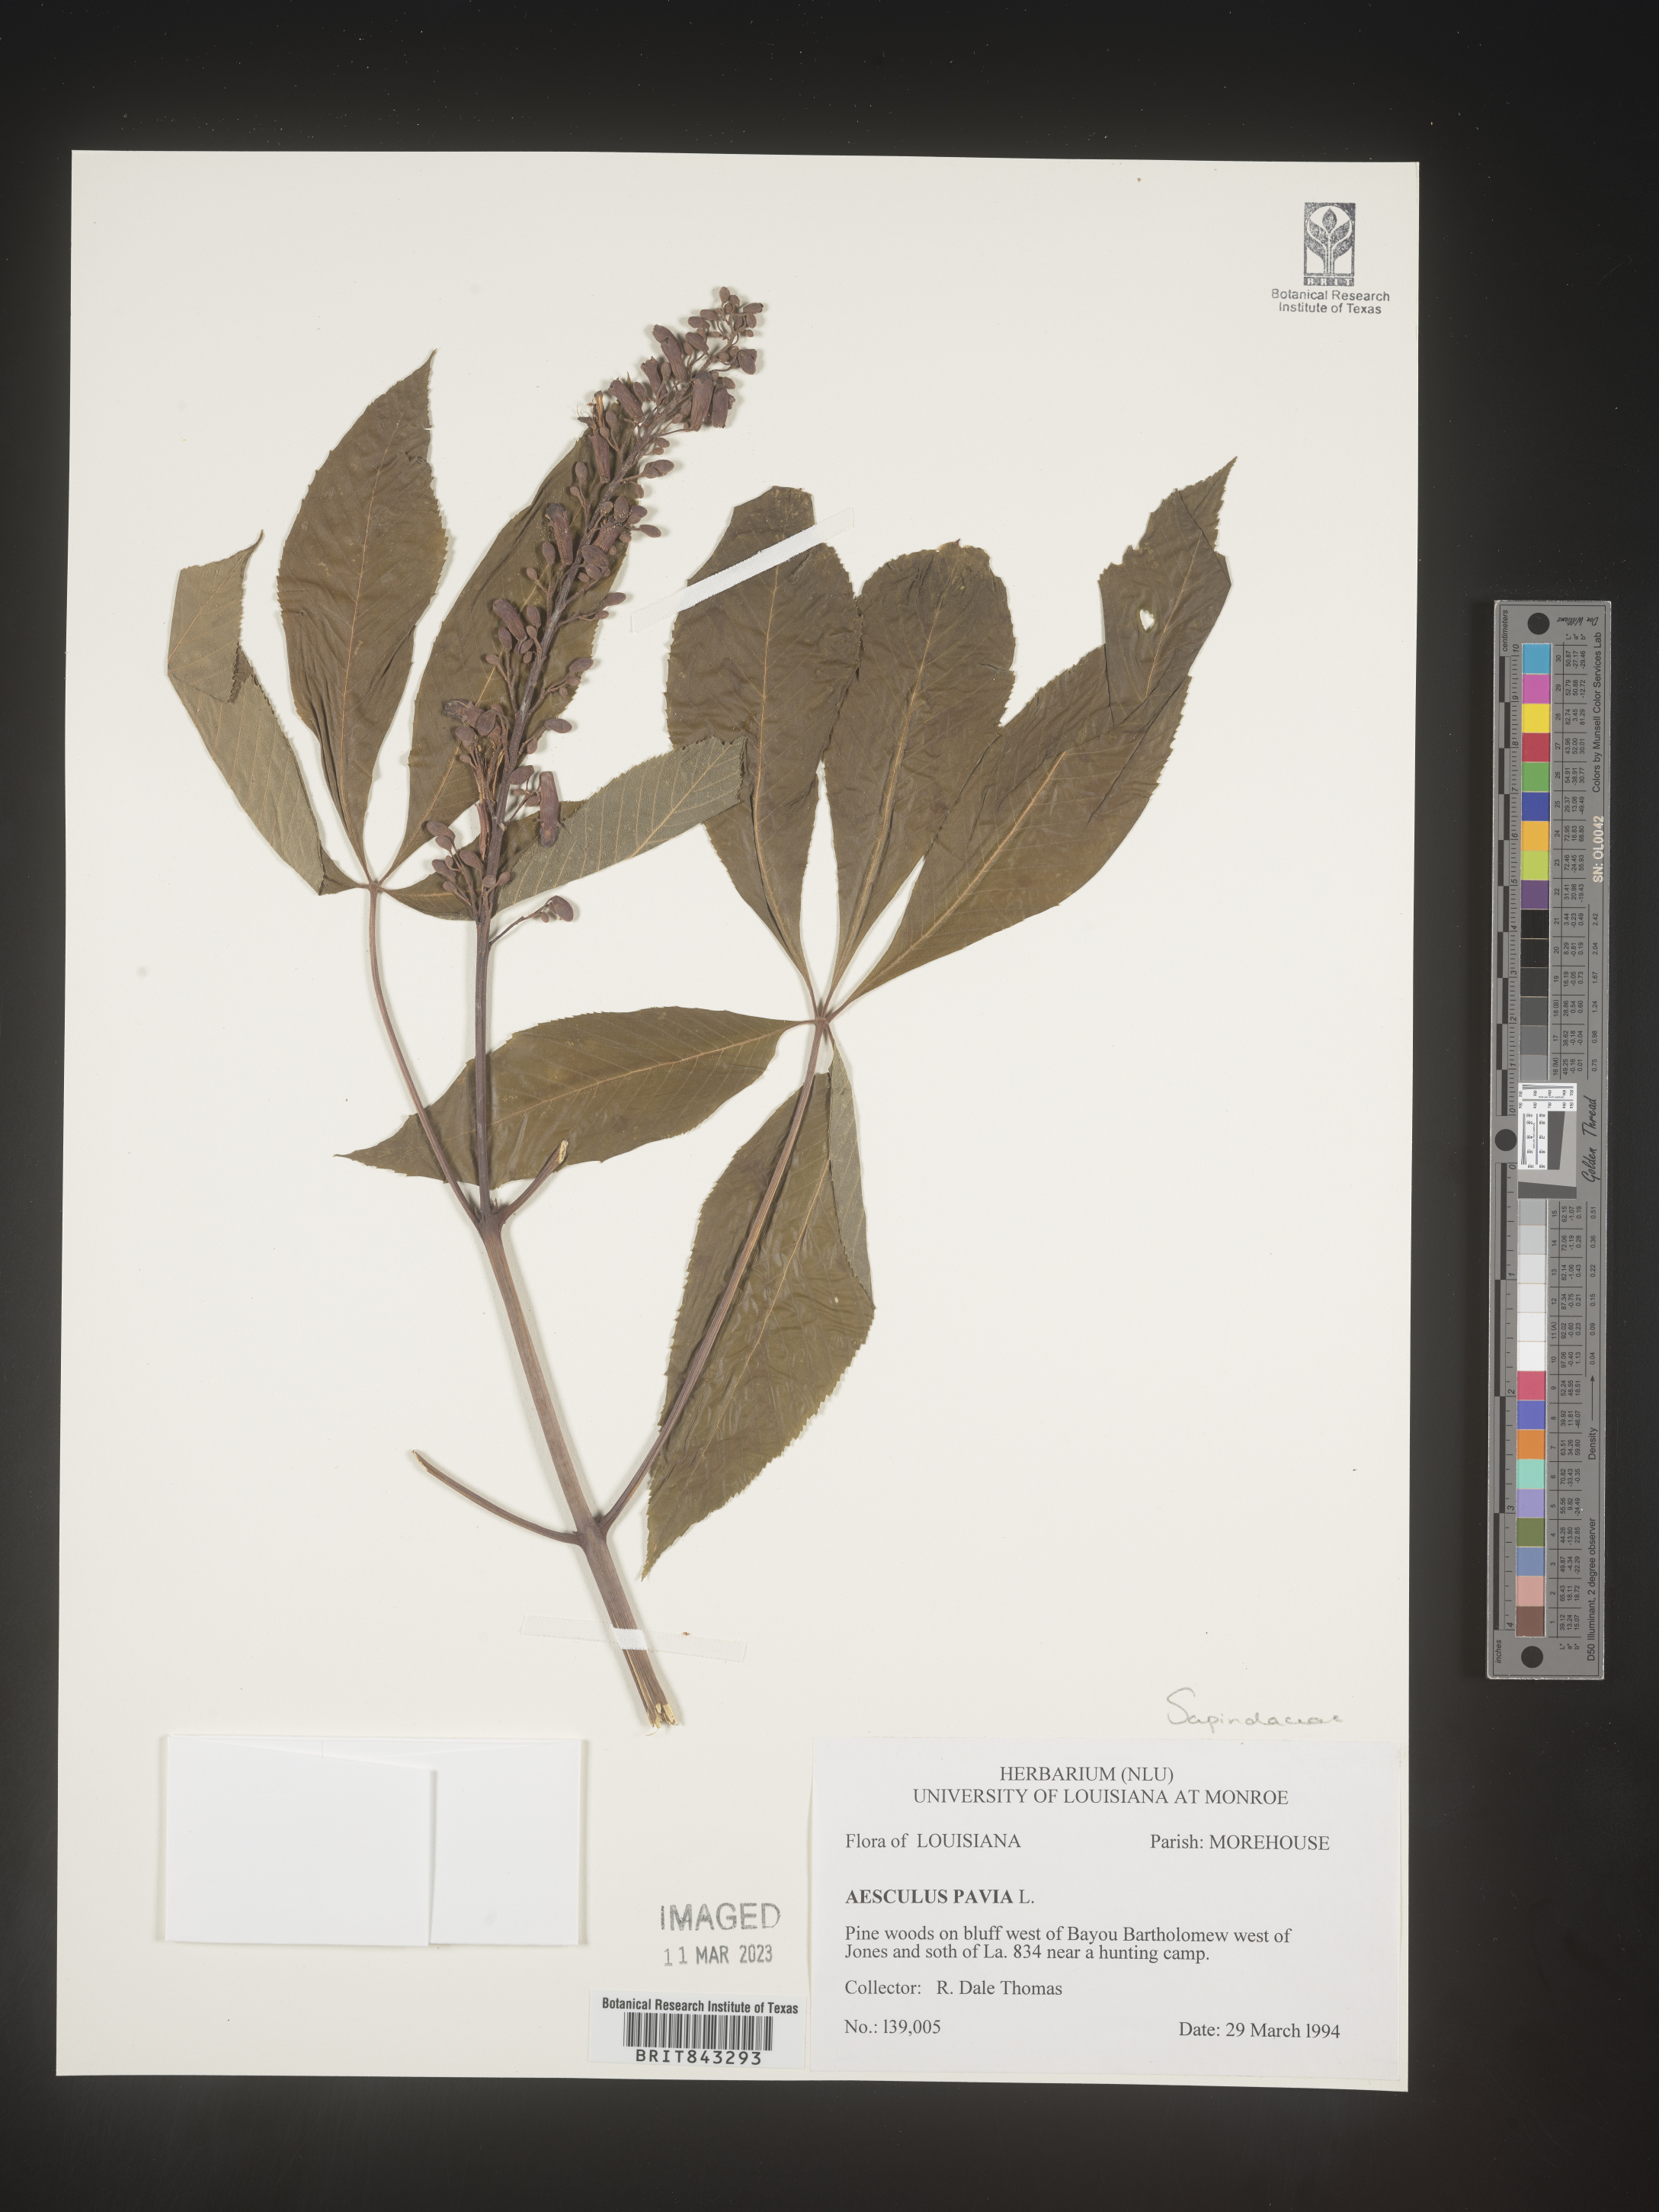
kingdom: Plantae
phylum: Tracheophyta
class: Magnoliopsida
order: Sapindales
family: Sapindaceae
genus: Aesculus
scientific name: Aesculus pavia
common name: Red buckeye
